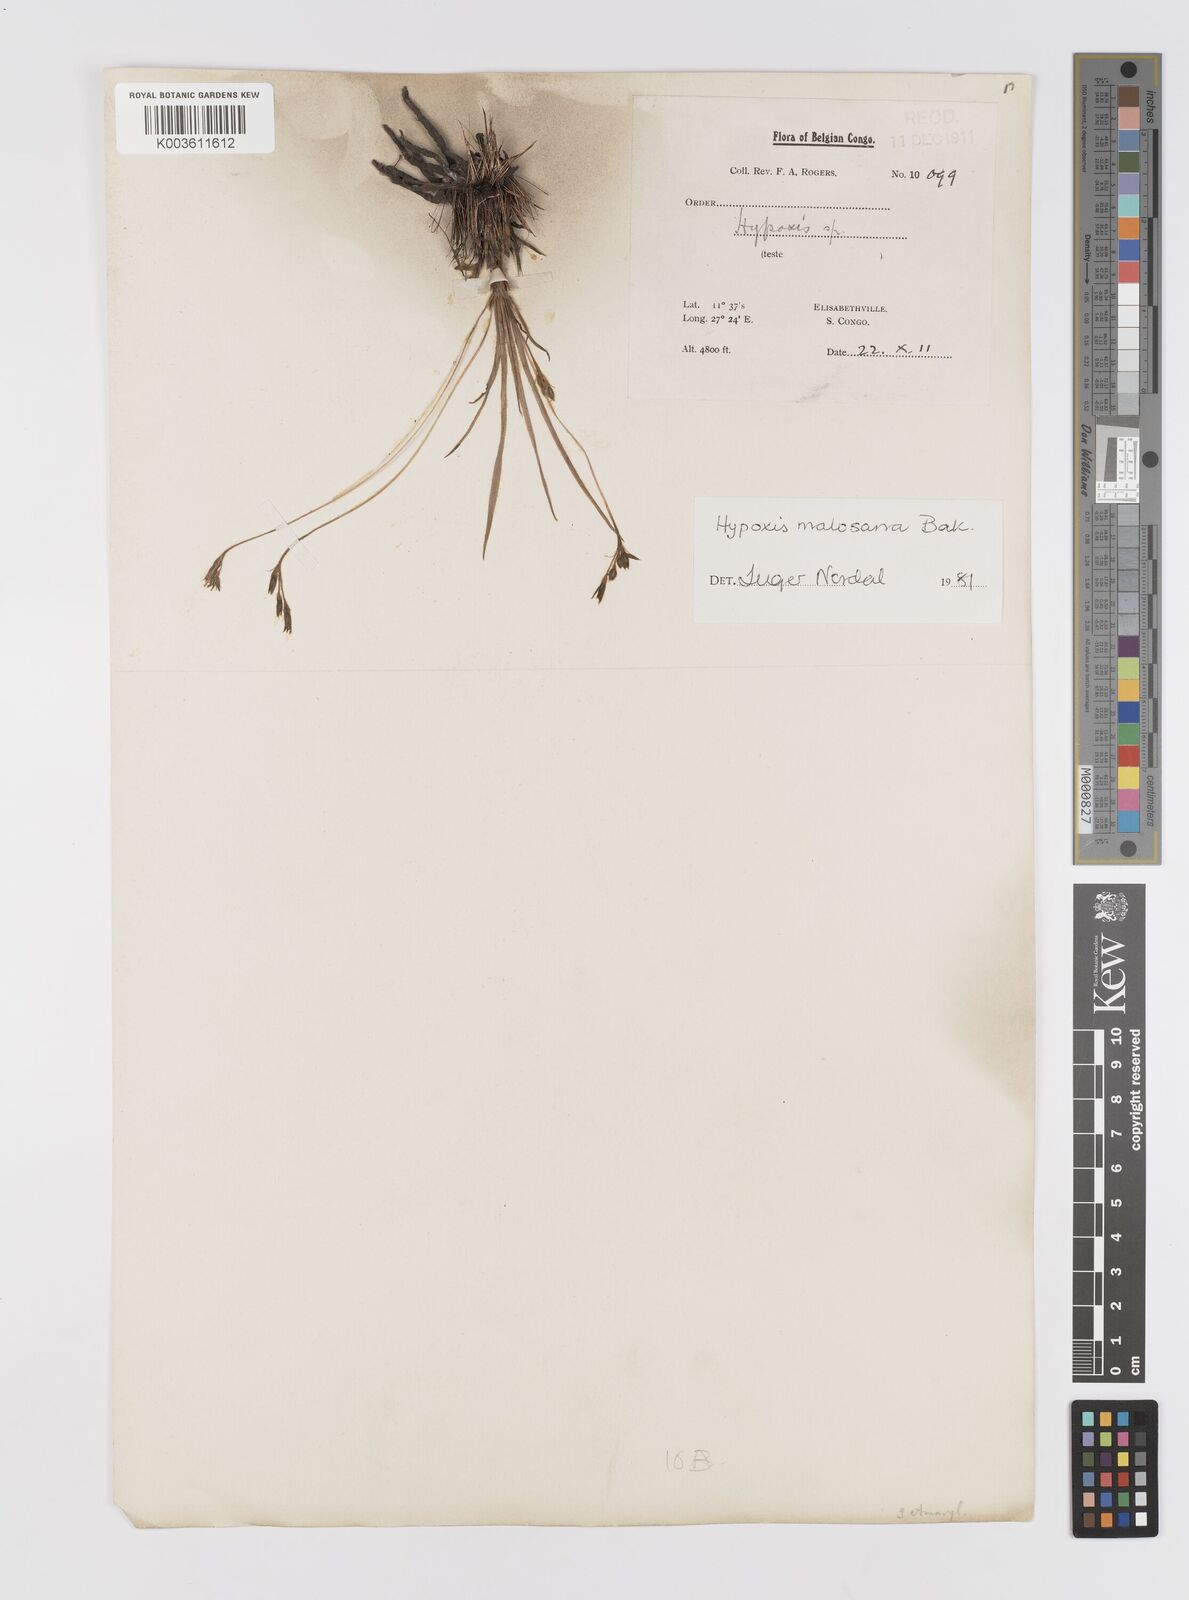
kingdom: Plantae
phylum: Tracheophyta
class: Liliopsida
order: Asparagales
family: Hypoxidaceae
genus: Hypoxis
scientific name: Hypoxis filiformis
